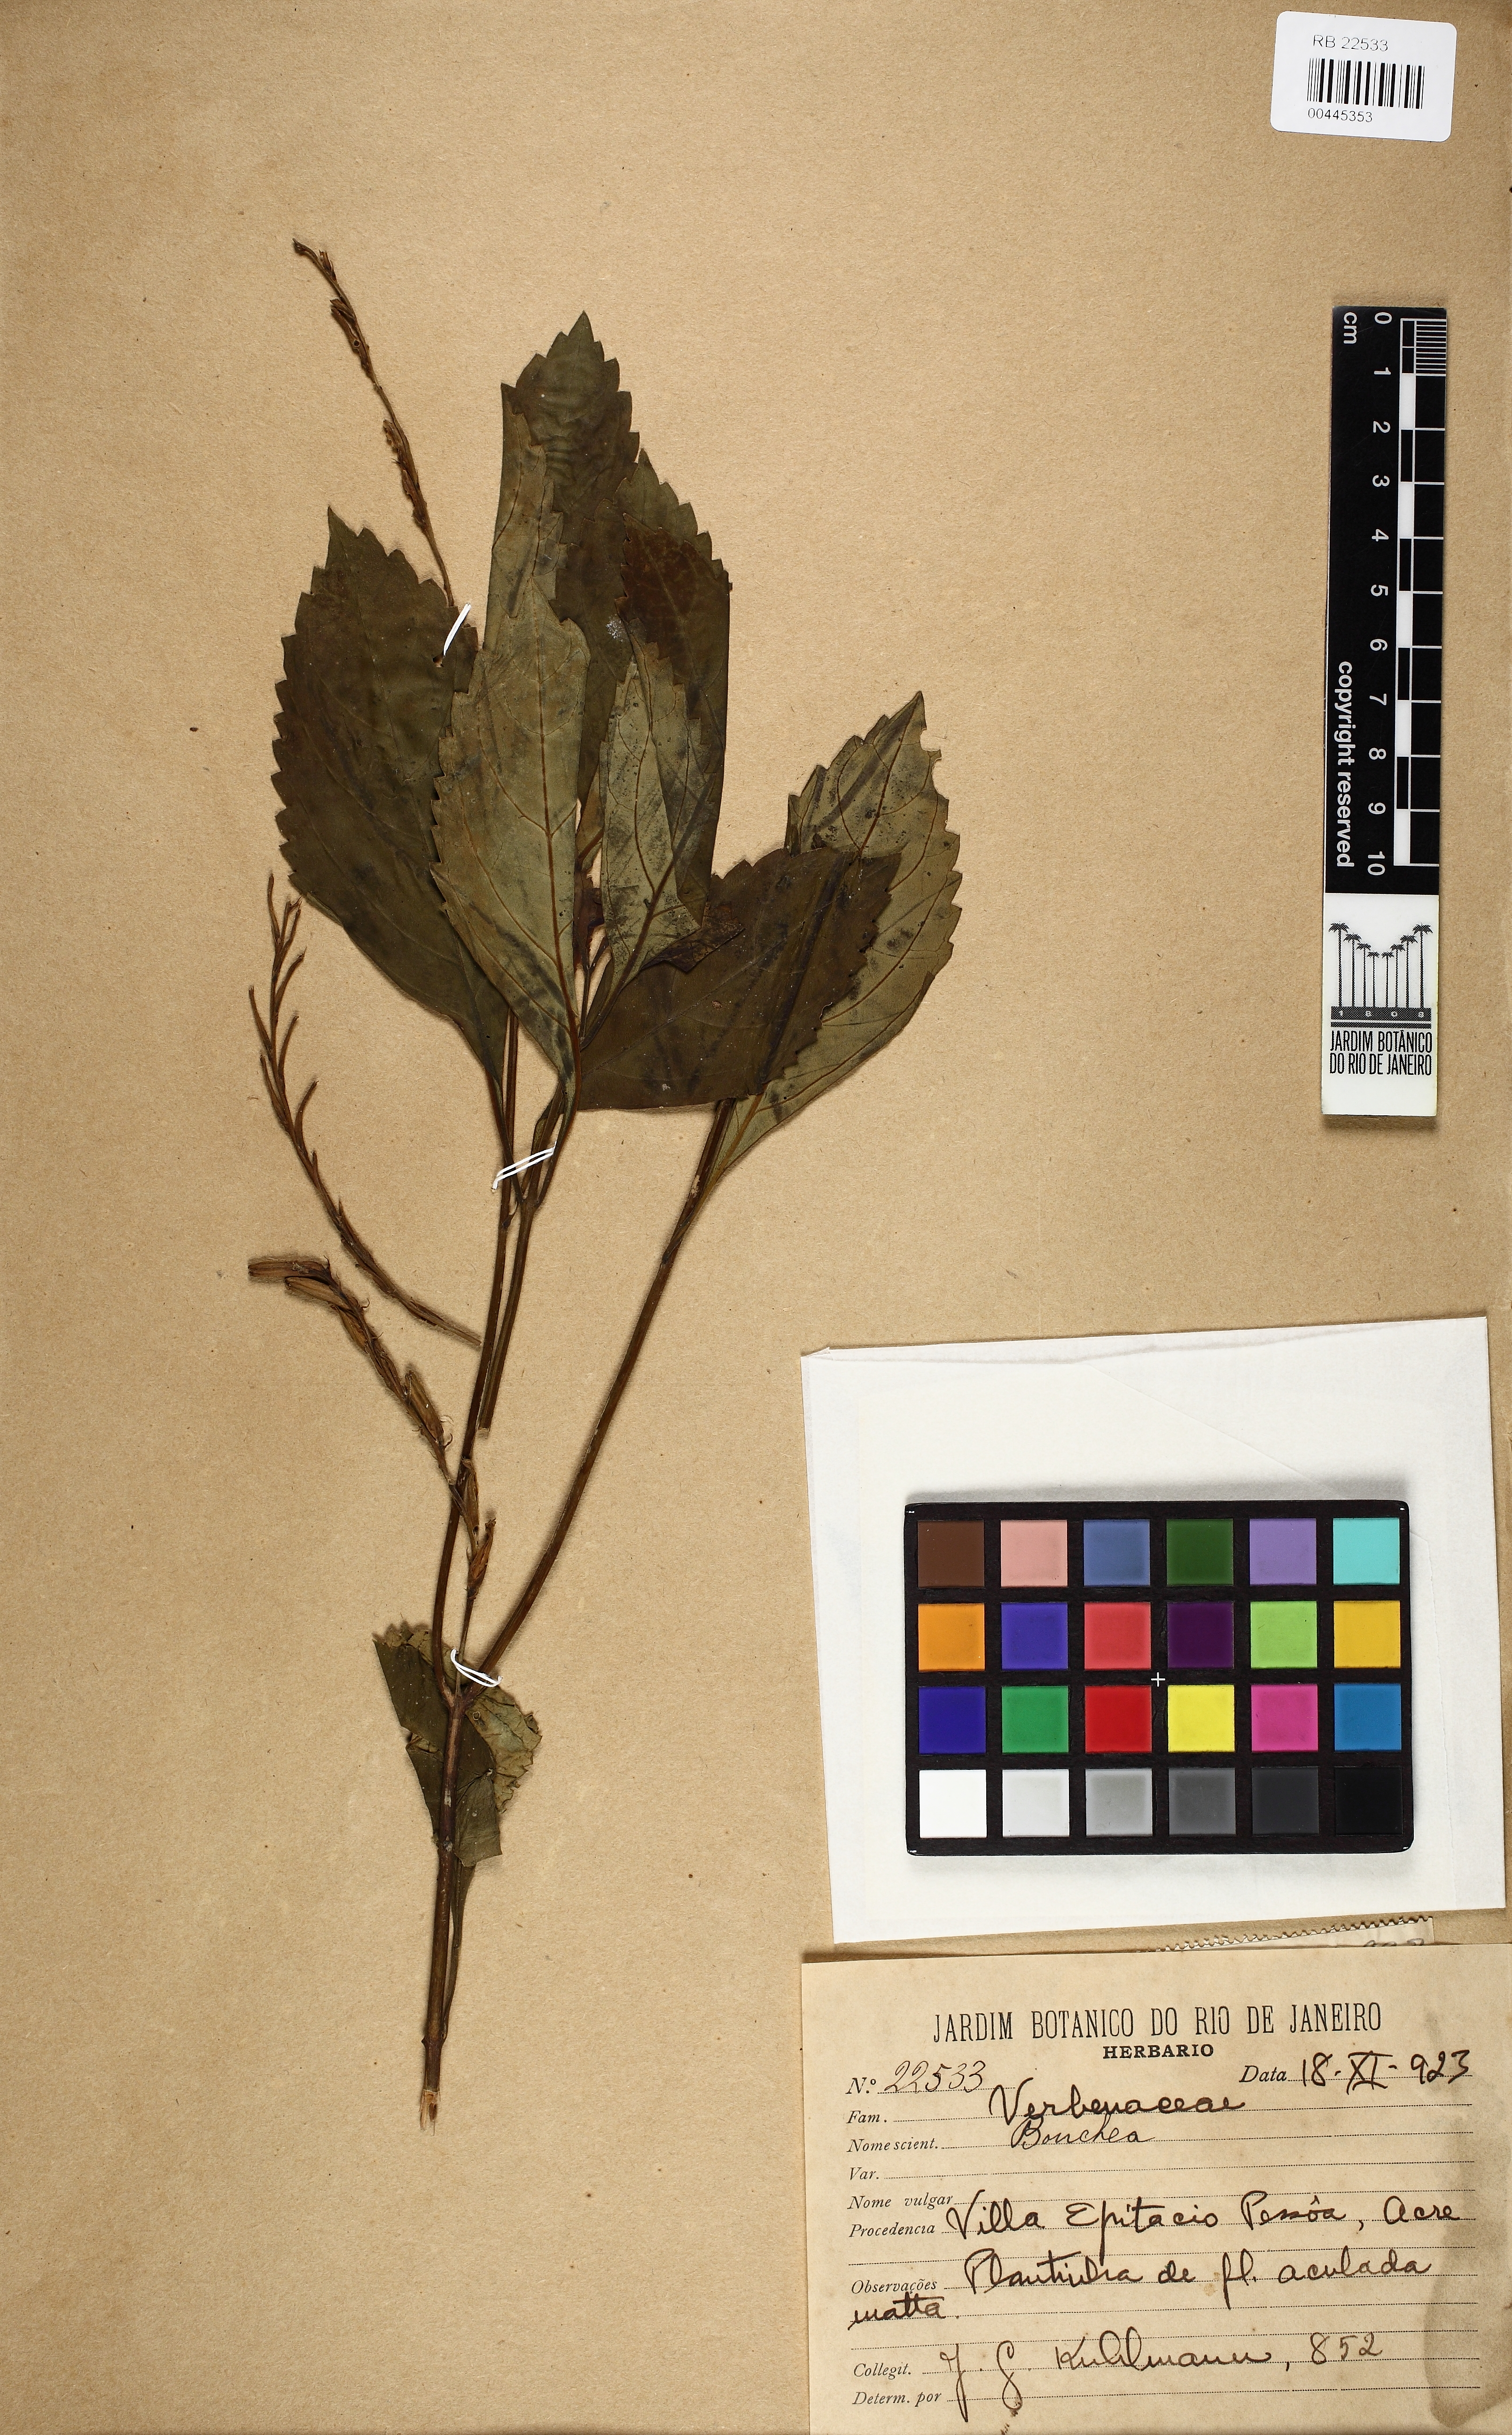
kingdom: Plantae
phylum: Tracheophyta
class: Magnoliopsida
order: Lamiales
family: Verbenaceae
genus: Bouchea
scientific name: Bouchea
